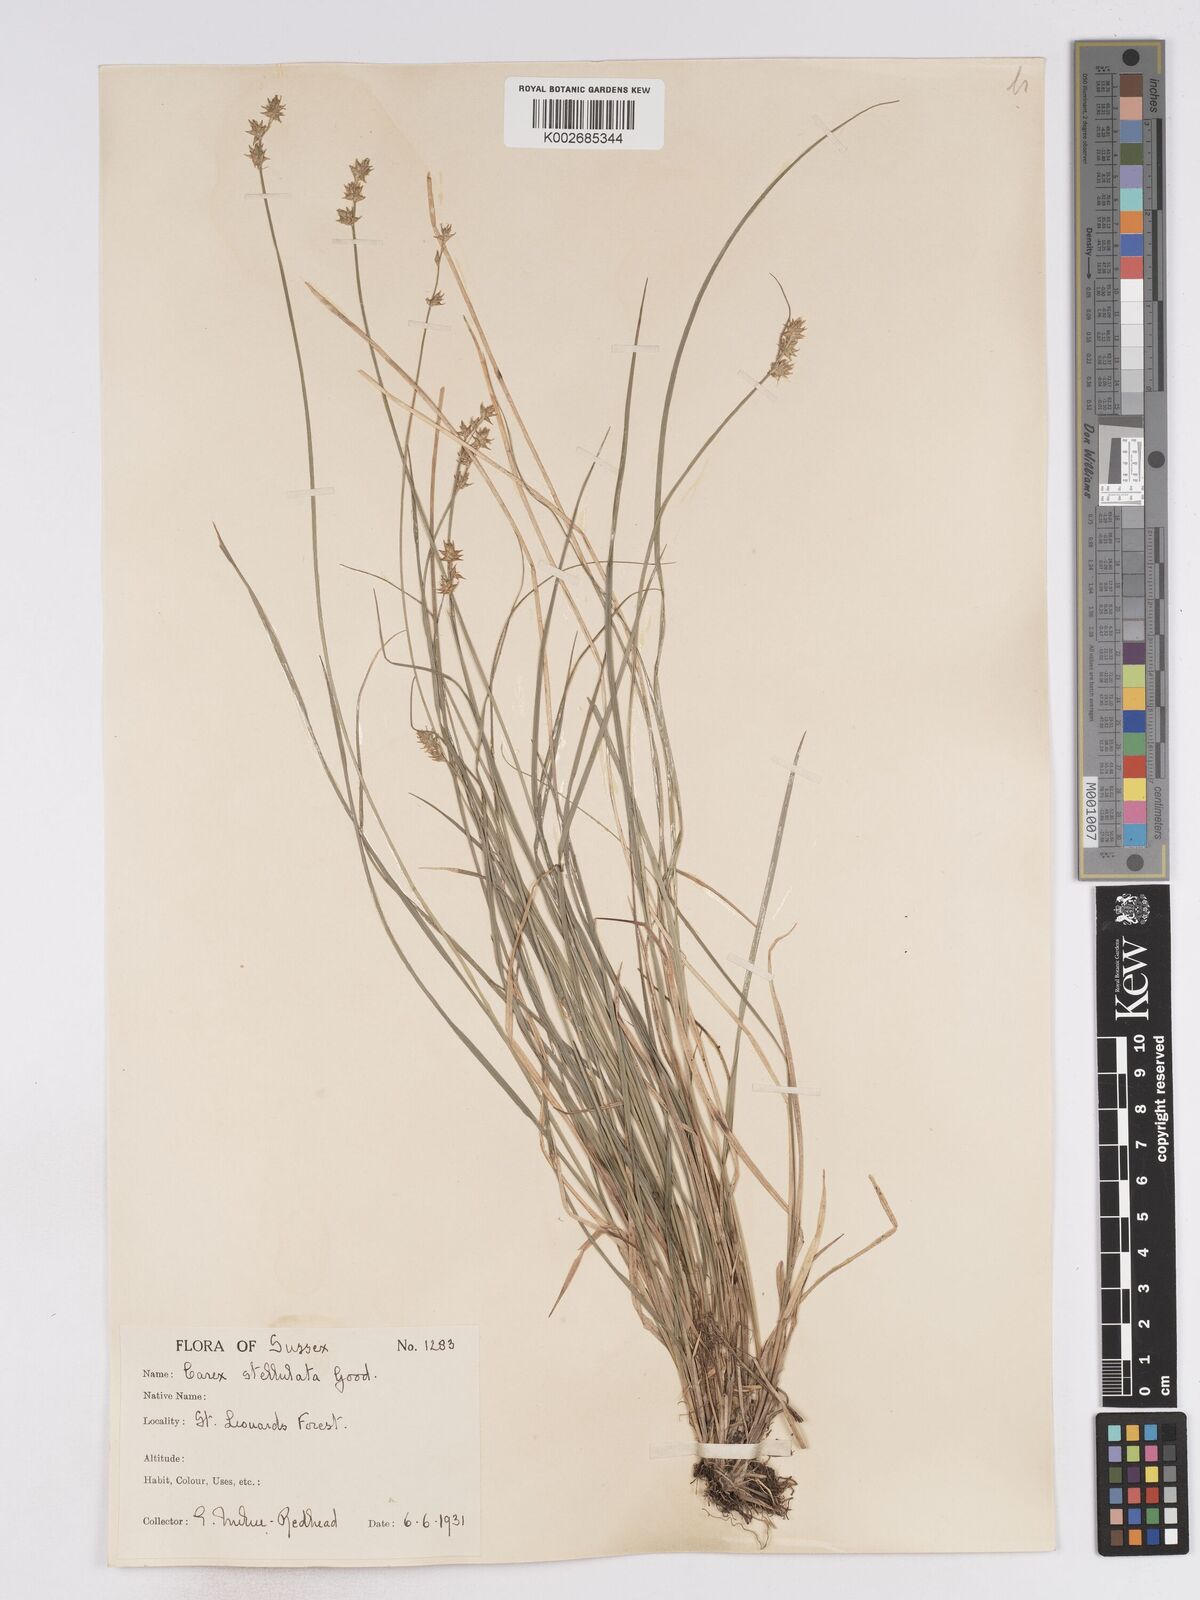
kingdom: Plantae
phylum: Tracheophyta
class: Liliopsida
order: Poales
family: Cyperaceae
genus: Carex
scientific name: Carex echinata
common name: Star sedge
